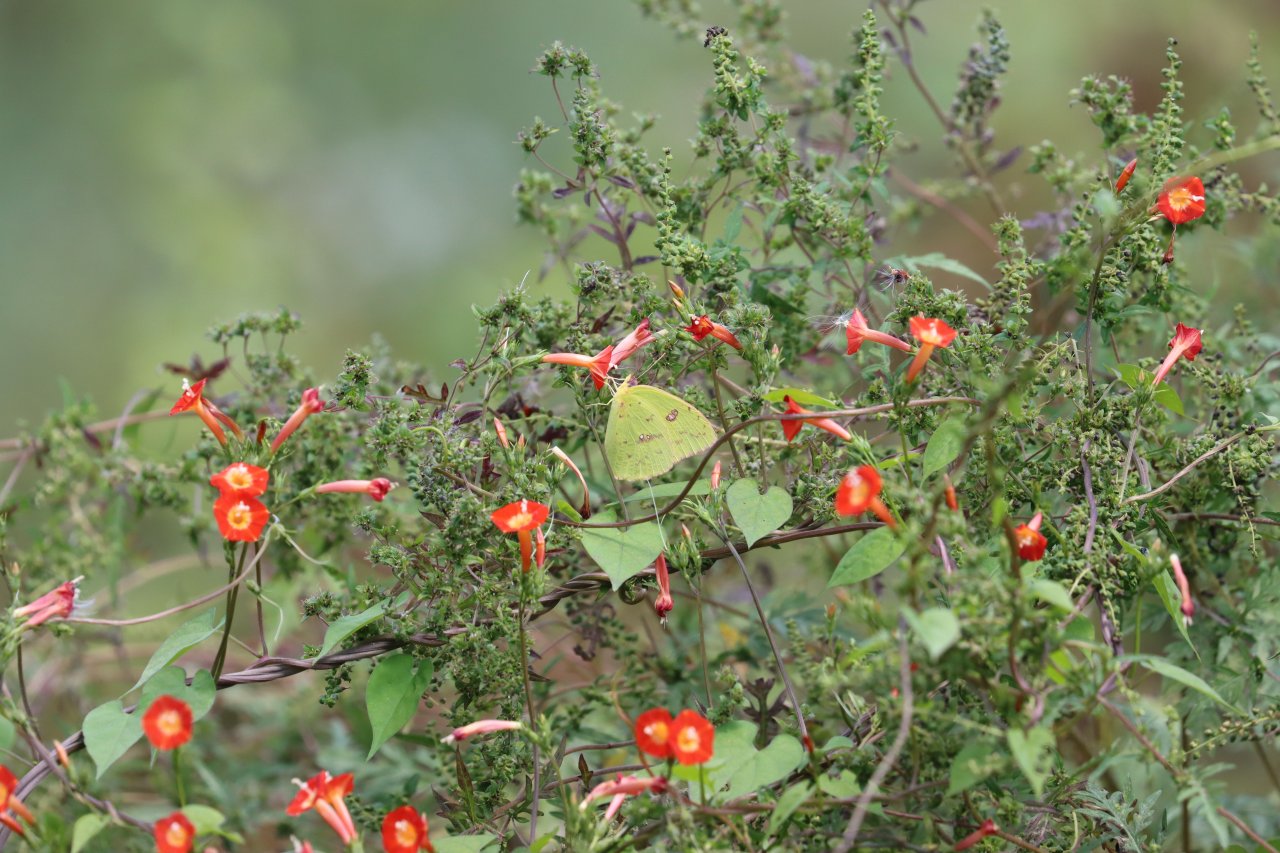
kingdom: Animalia
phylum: Arthropoda
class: Insecta
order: Lepidoptera
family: Pieridae
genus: Phoebis
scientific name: Phoebis sennae
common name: Cloudless Sulphur
